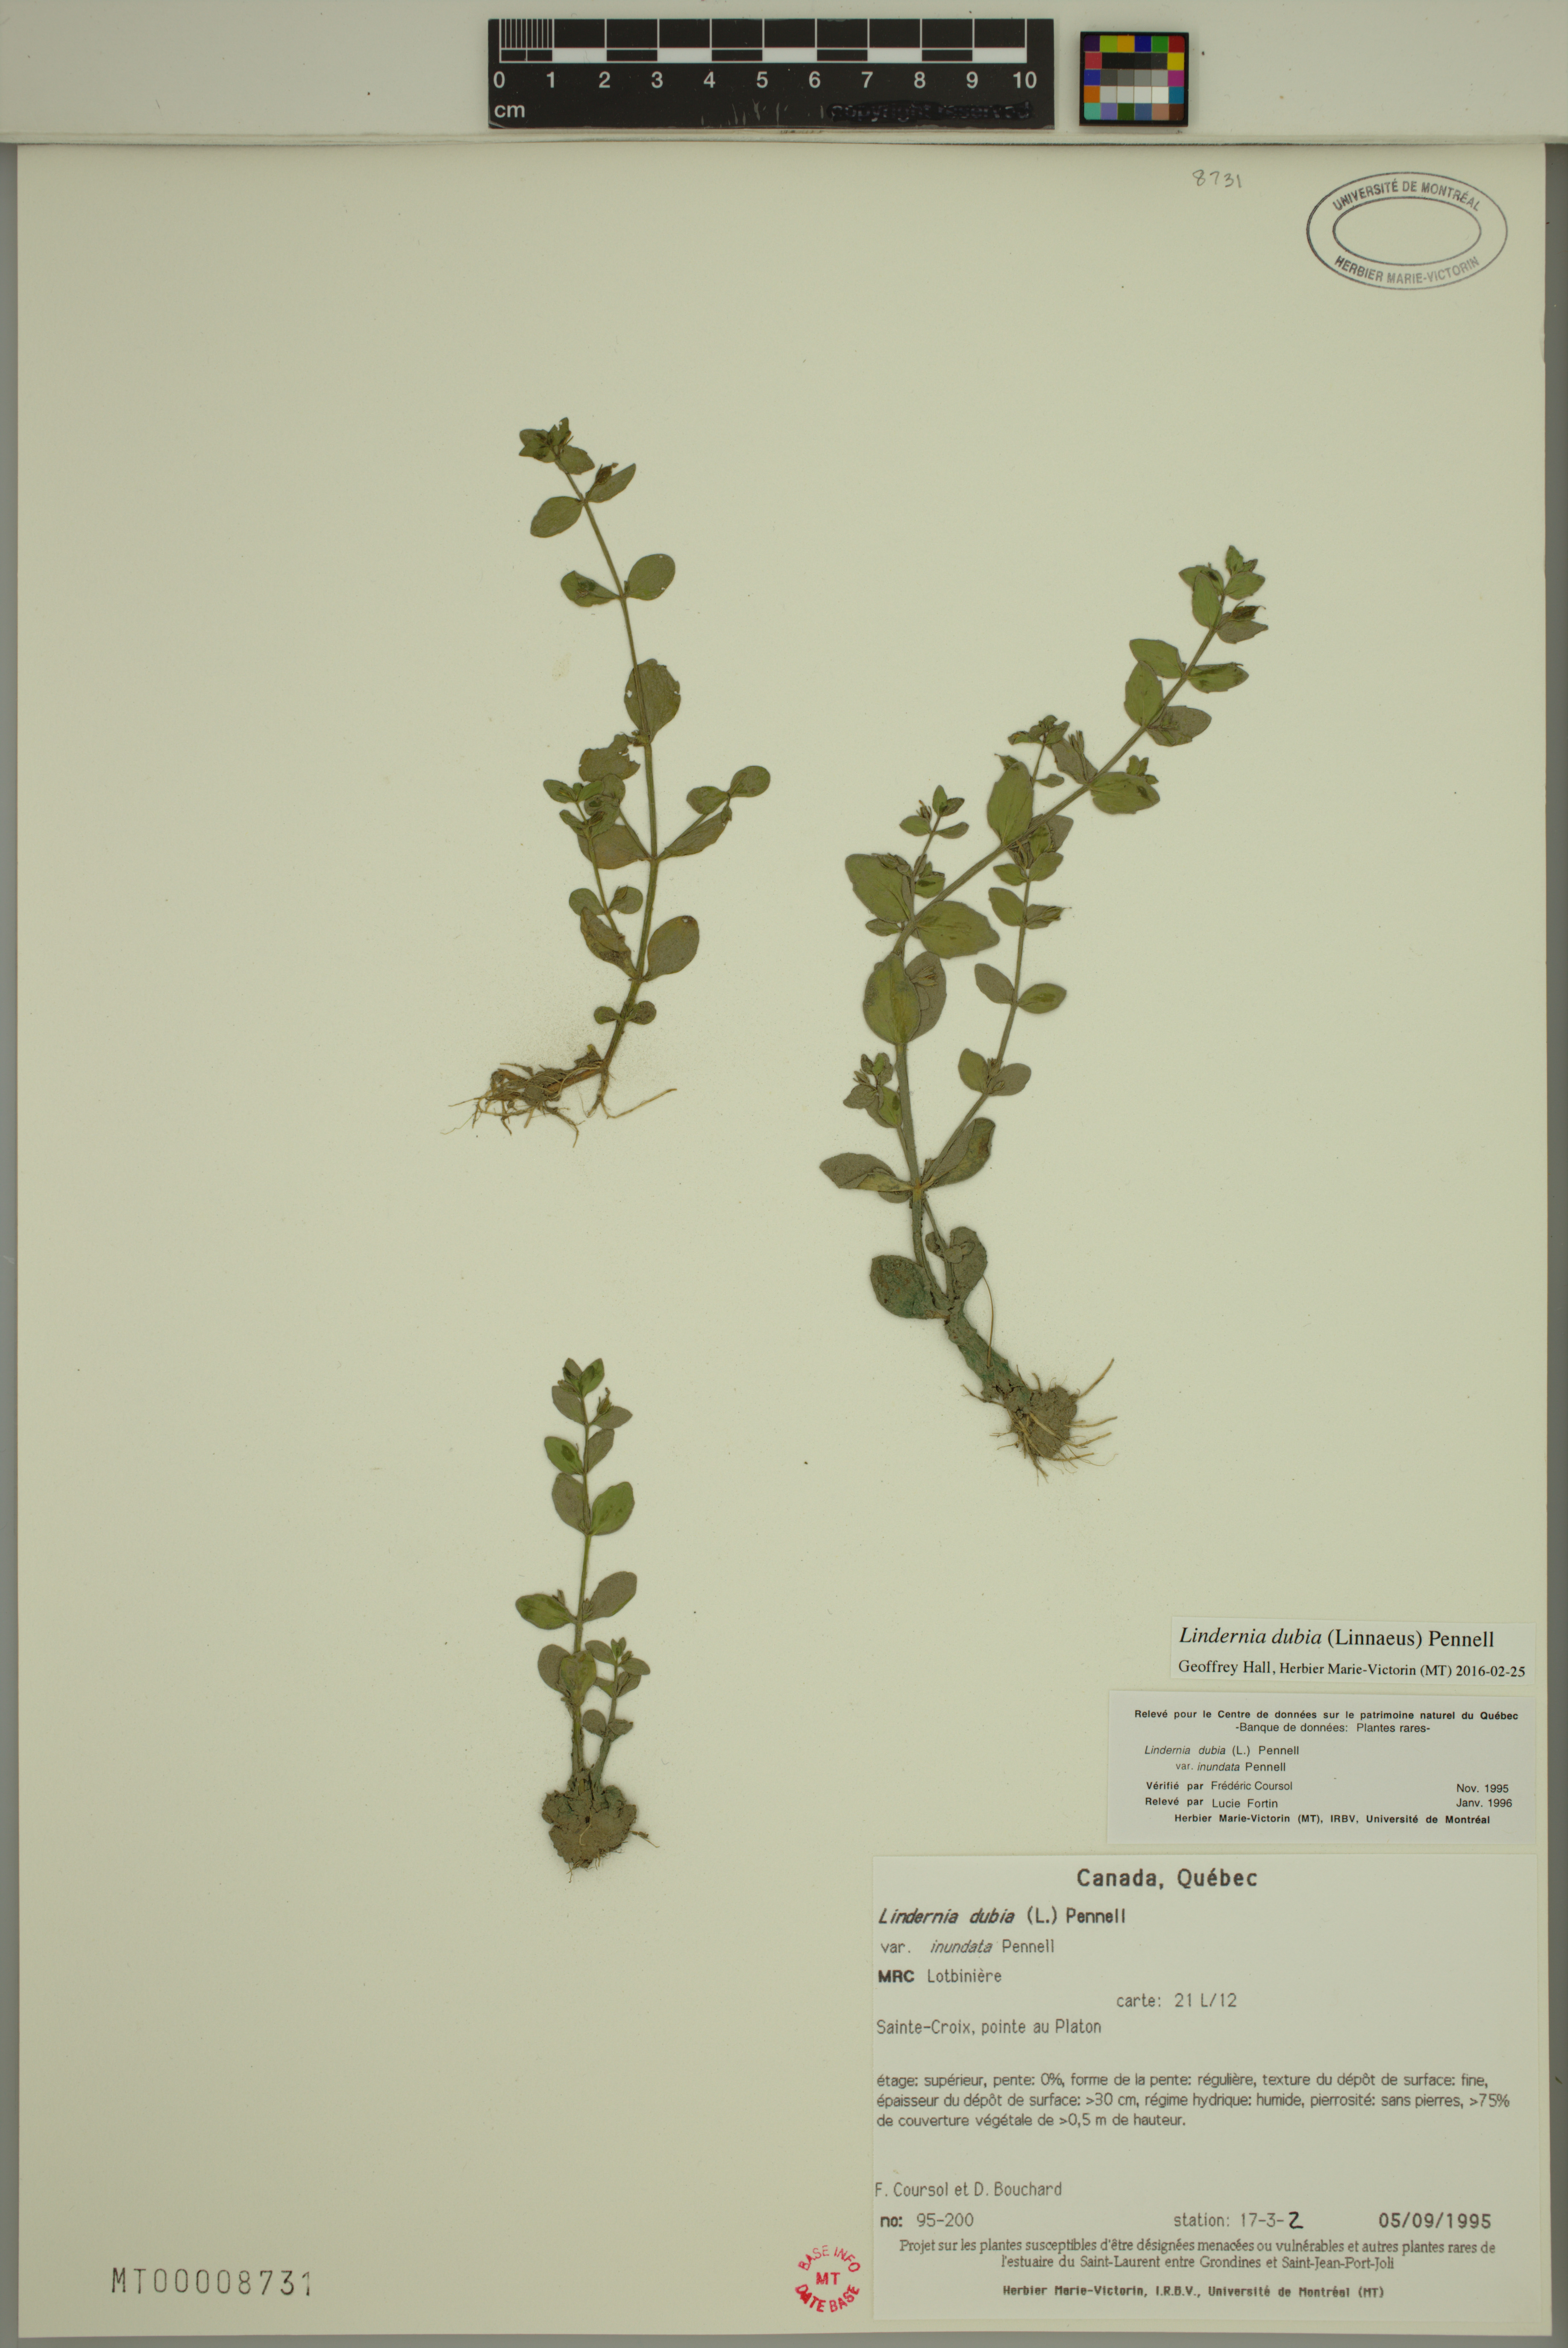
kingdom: Plantae
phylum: Tracheophyta
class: Magnoliopsida
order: Lamiales
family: Linderniaceae
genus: Lindernia
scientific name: Lindernia dubia
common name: Annual false pimpernel
